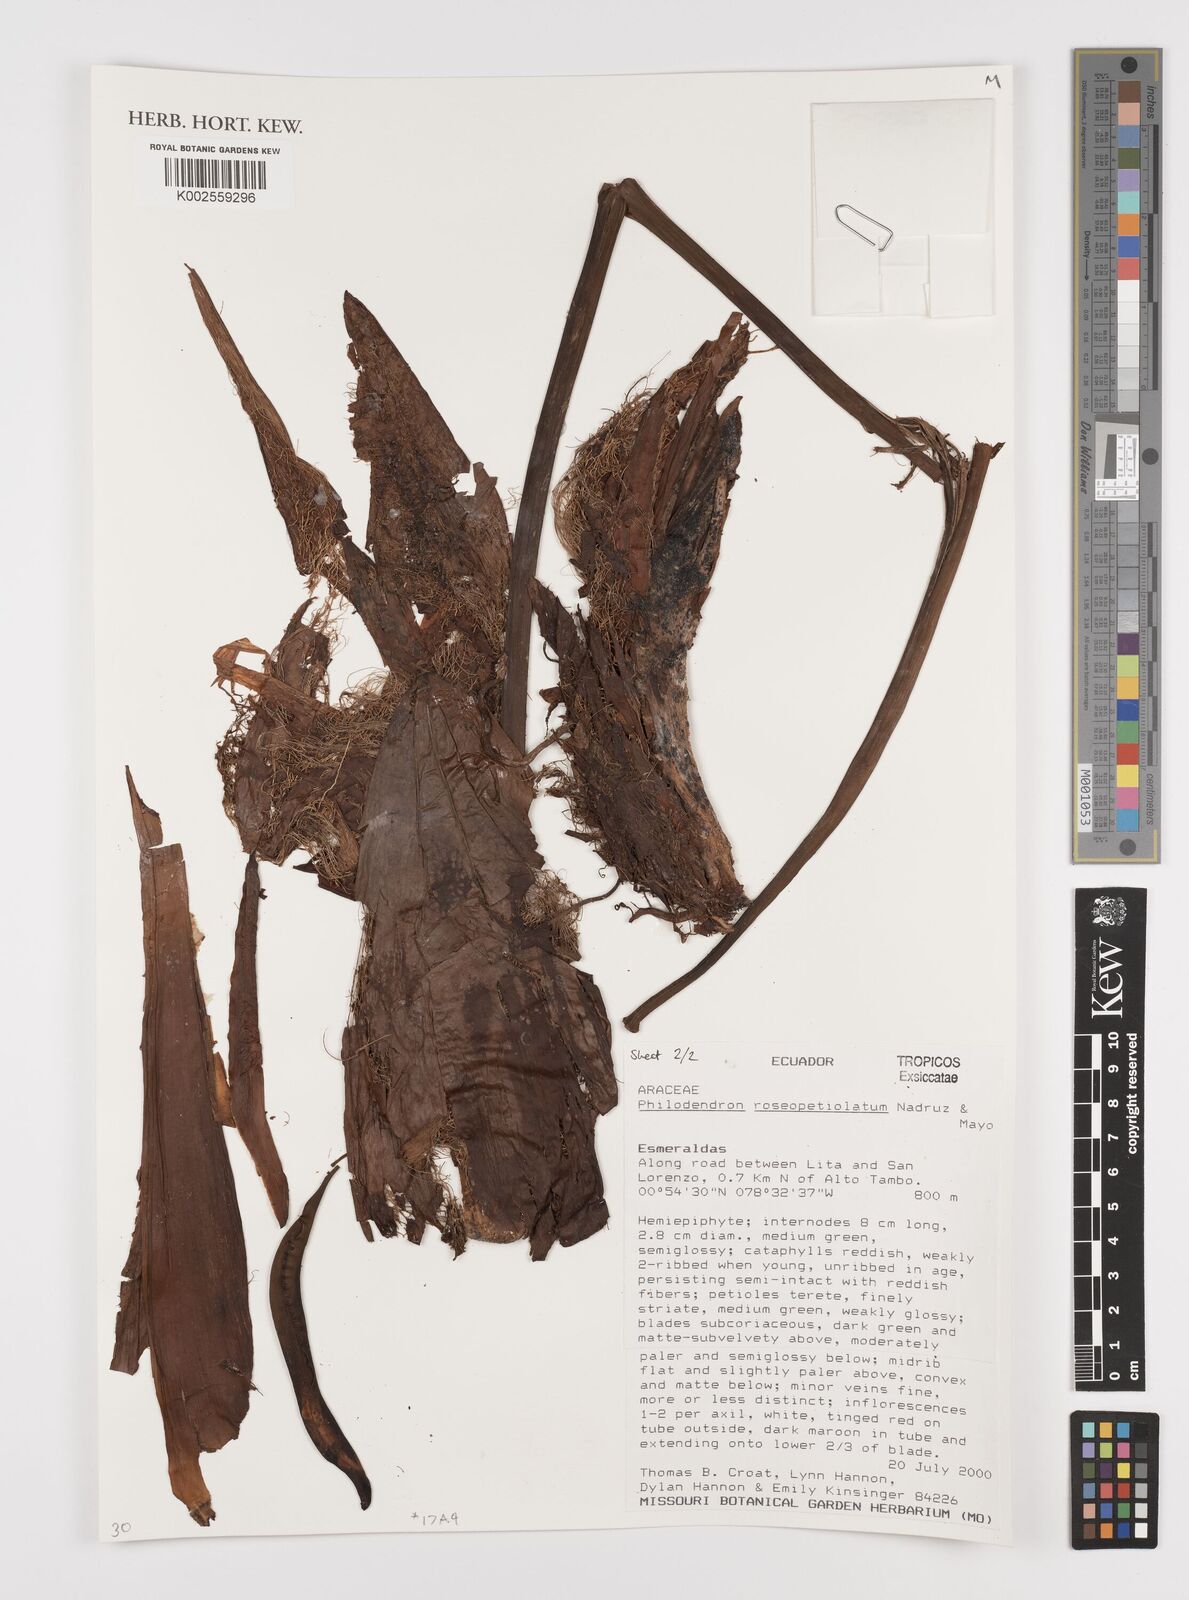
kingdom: Plantae
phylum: Tracheophyta
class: Liliopsida
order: Alismatales
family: Araceae
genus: Philodendron
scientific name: Philodendron roseocataphyllum
